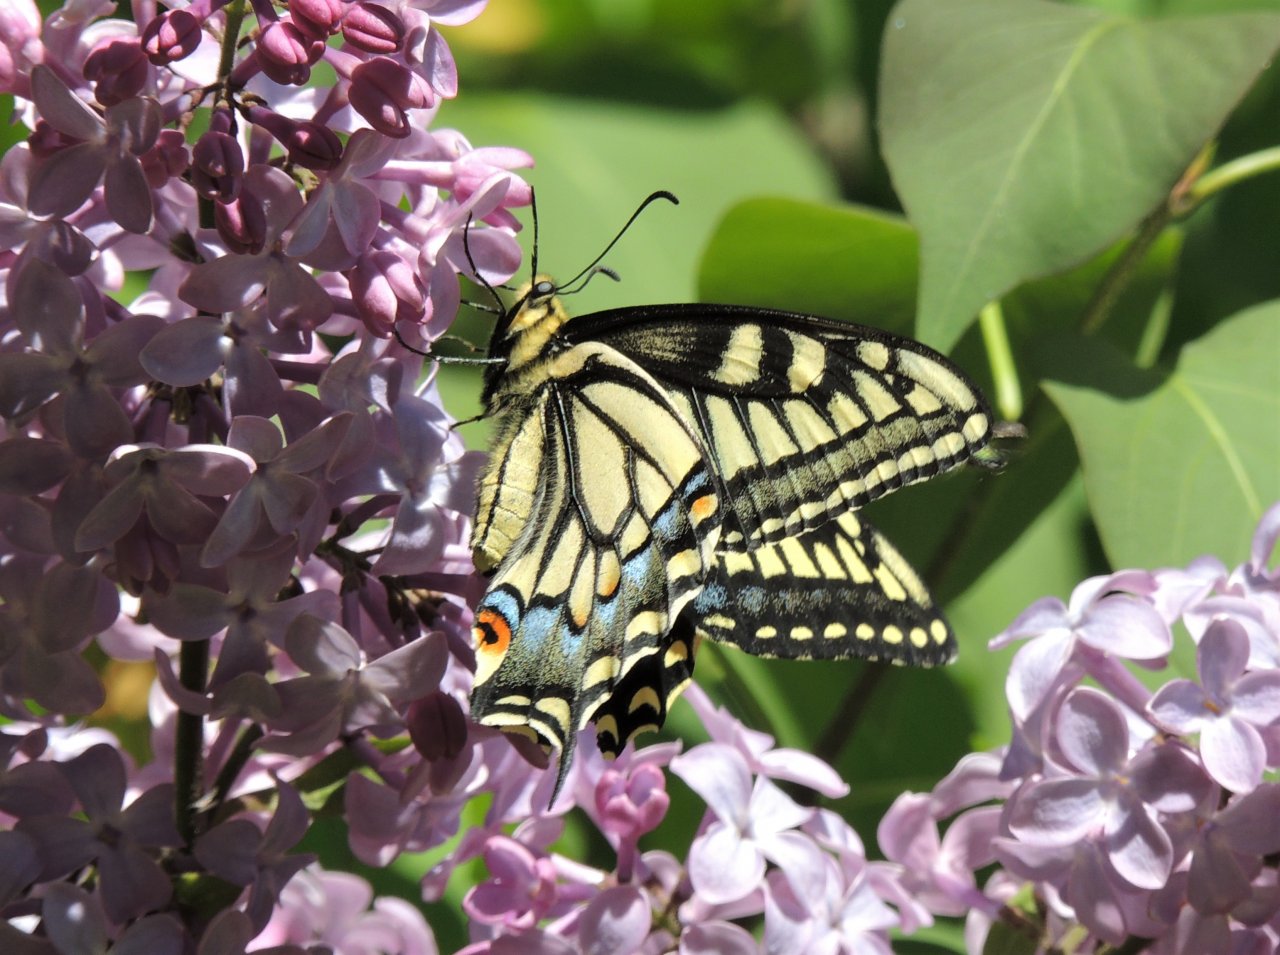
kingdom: Animalia
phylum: Arthropoda
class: Insecta
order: Lepidoptera
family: Papilionidae
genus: Papilio
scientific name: Papilio machaon
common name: Old World Swallowtail
